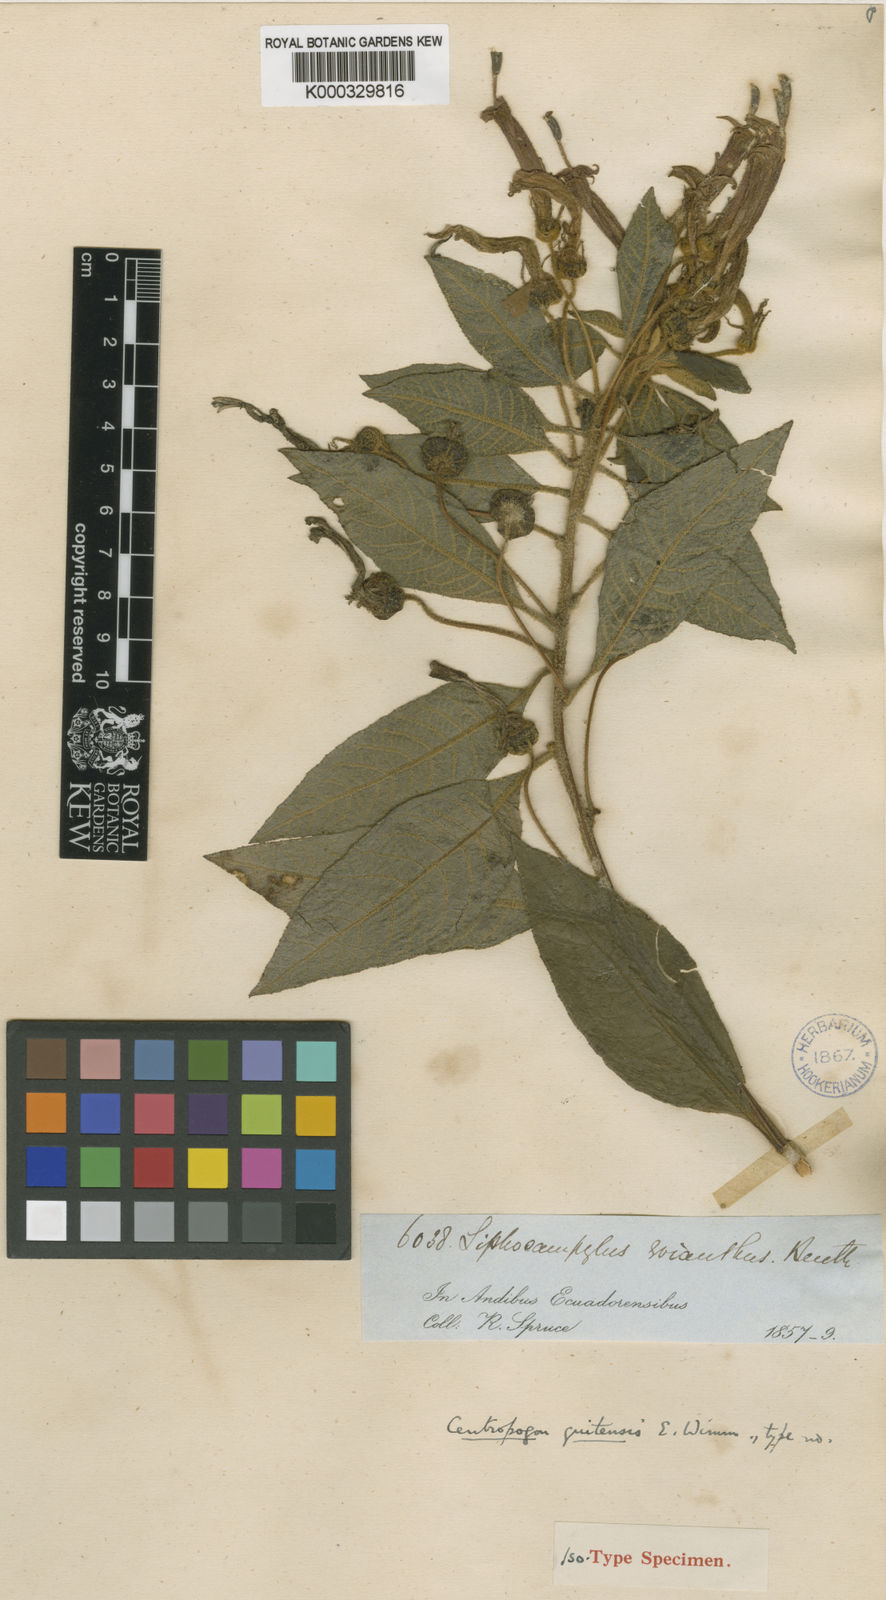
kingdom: Plantae
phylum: Tracheophyta
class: Magnoliopsida
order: Asterales
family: Campanulaceae
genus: Centropogon
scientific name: Centropogon licayensis
